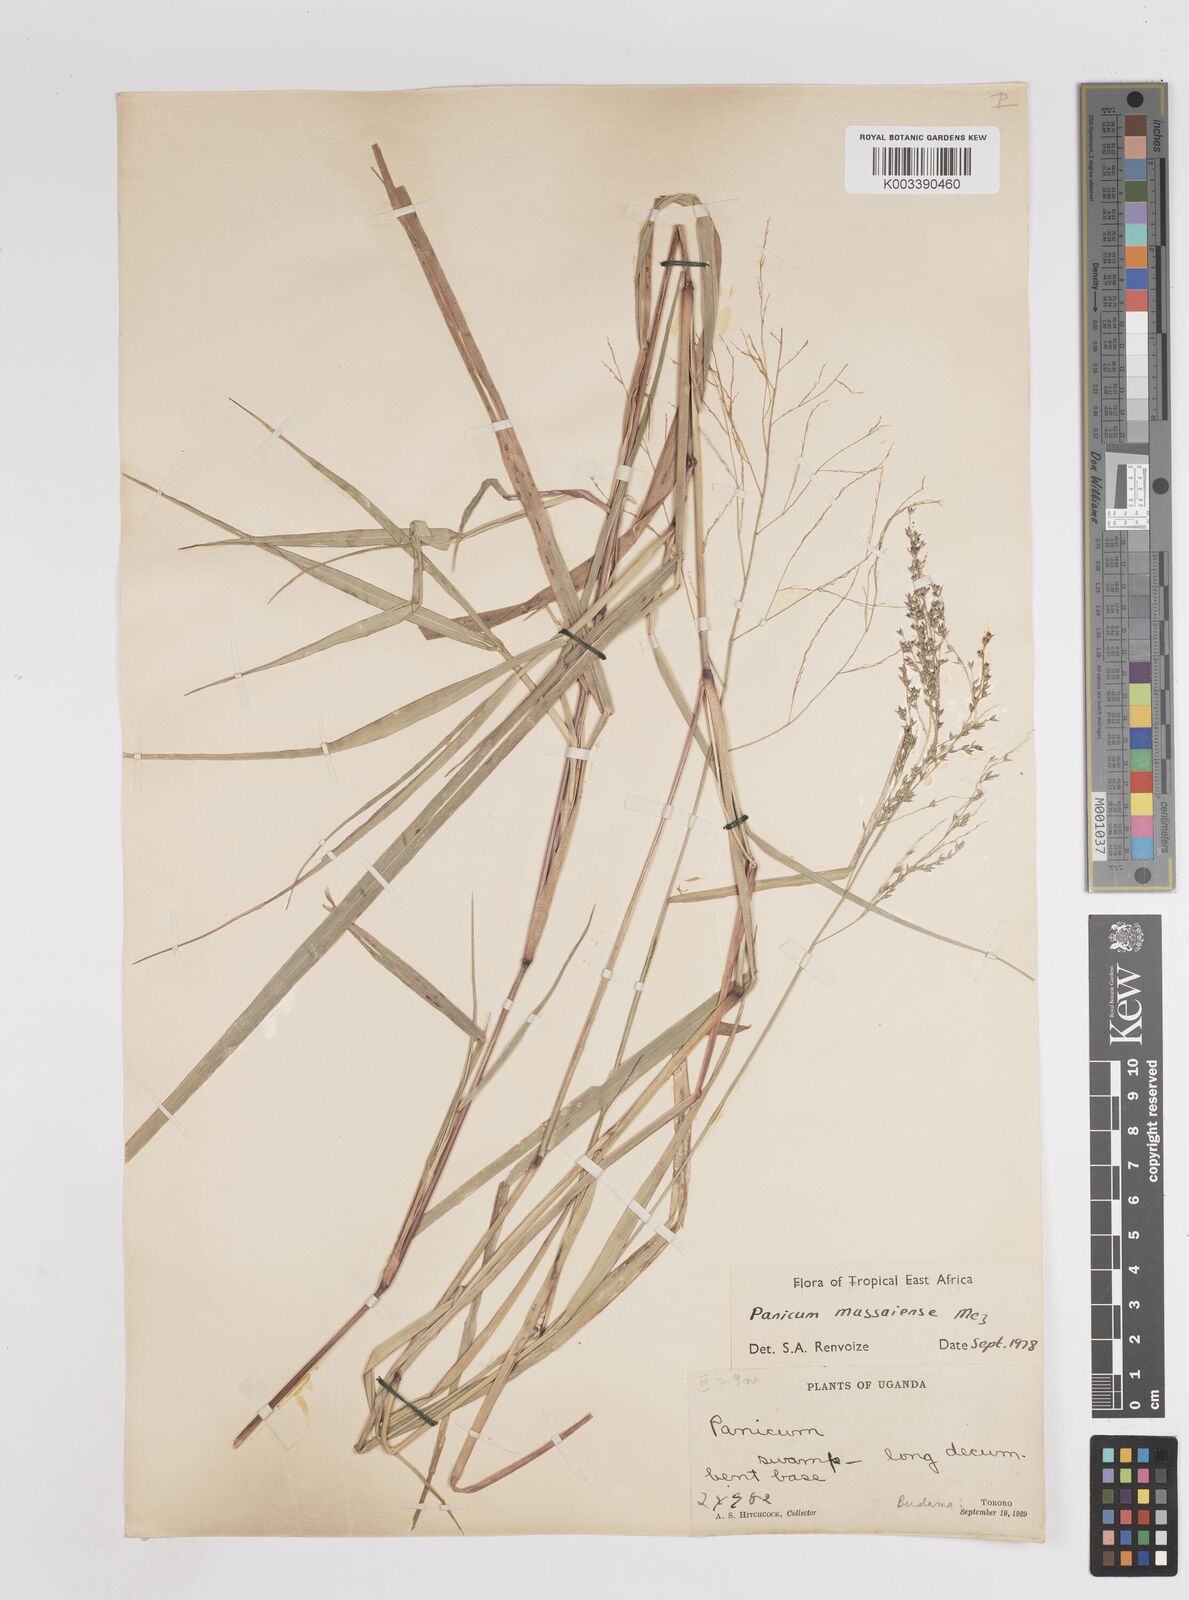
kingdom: Plantae
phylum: Tracheophyta
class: Liliopsida
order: Poales
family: Poaceae
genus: Panicum
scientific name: Panicum massaiense
